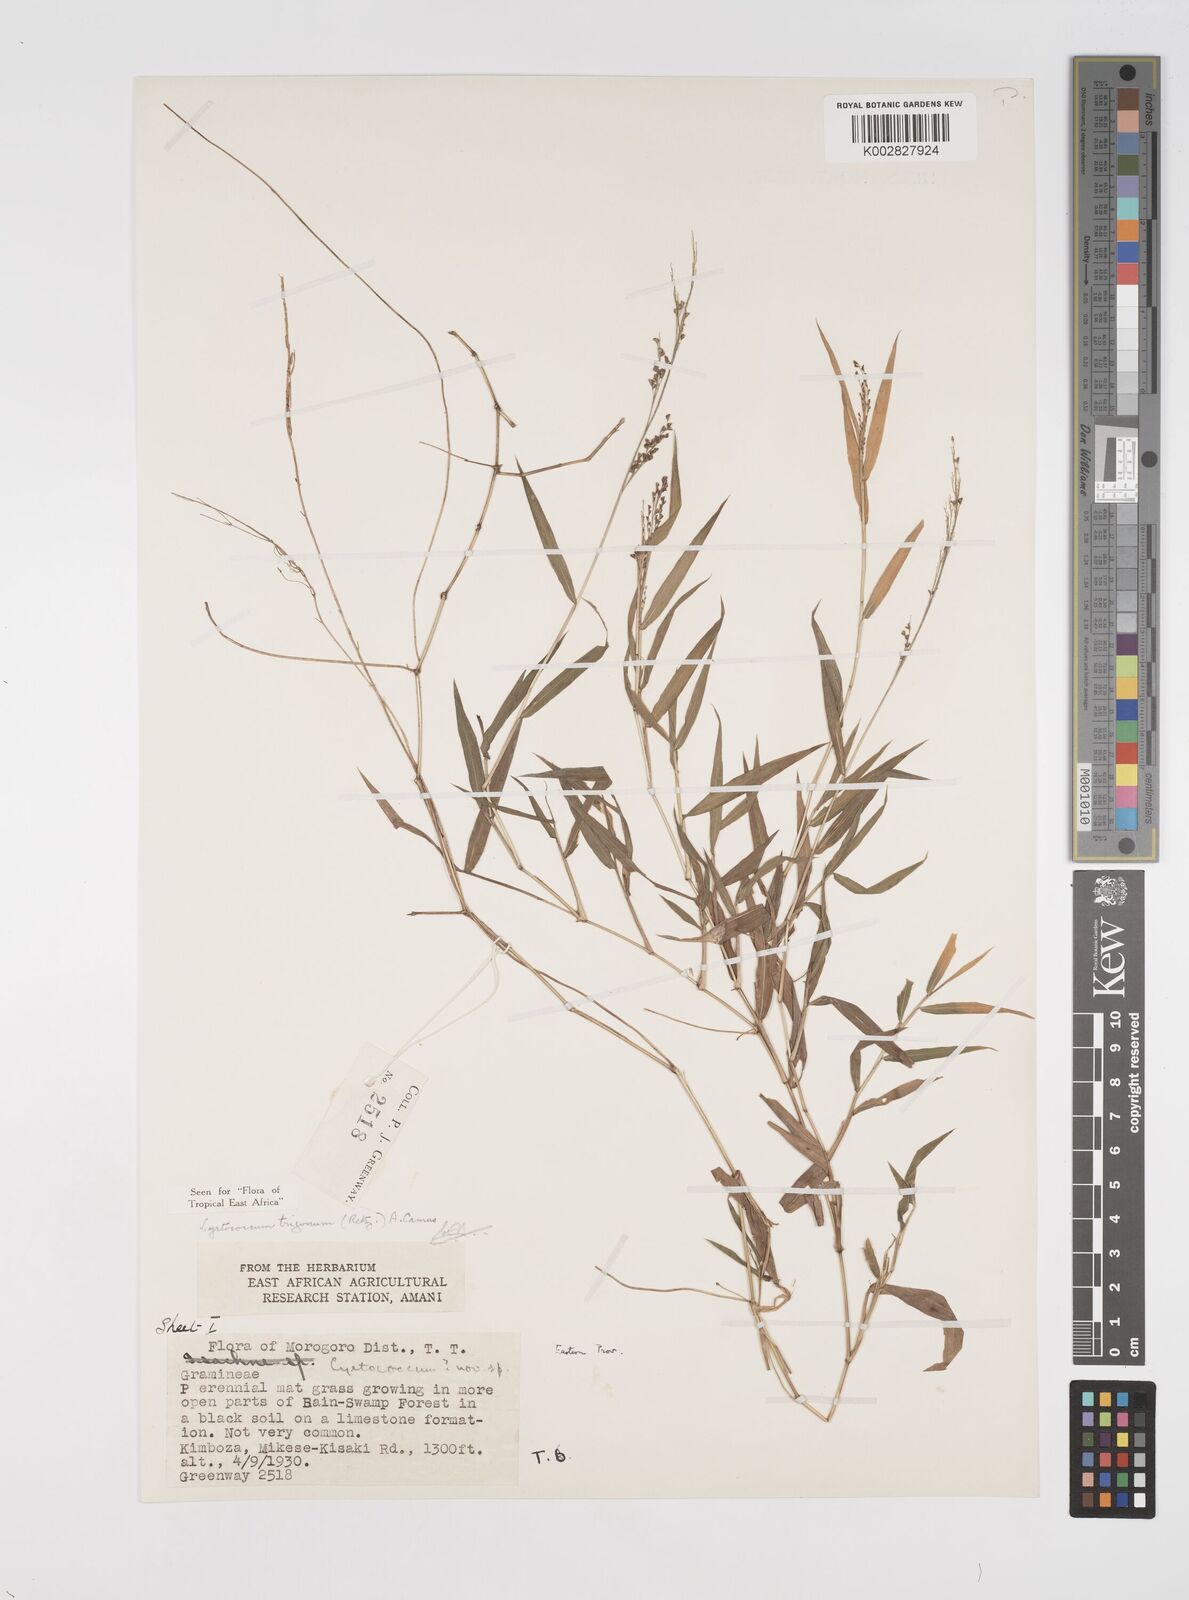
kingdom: Plantae
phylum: Tracheophyta
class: Liliopsida
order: Poales
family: Poaceae
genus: Cyrtococcum
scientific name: Cyrtococcum trigonum
